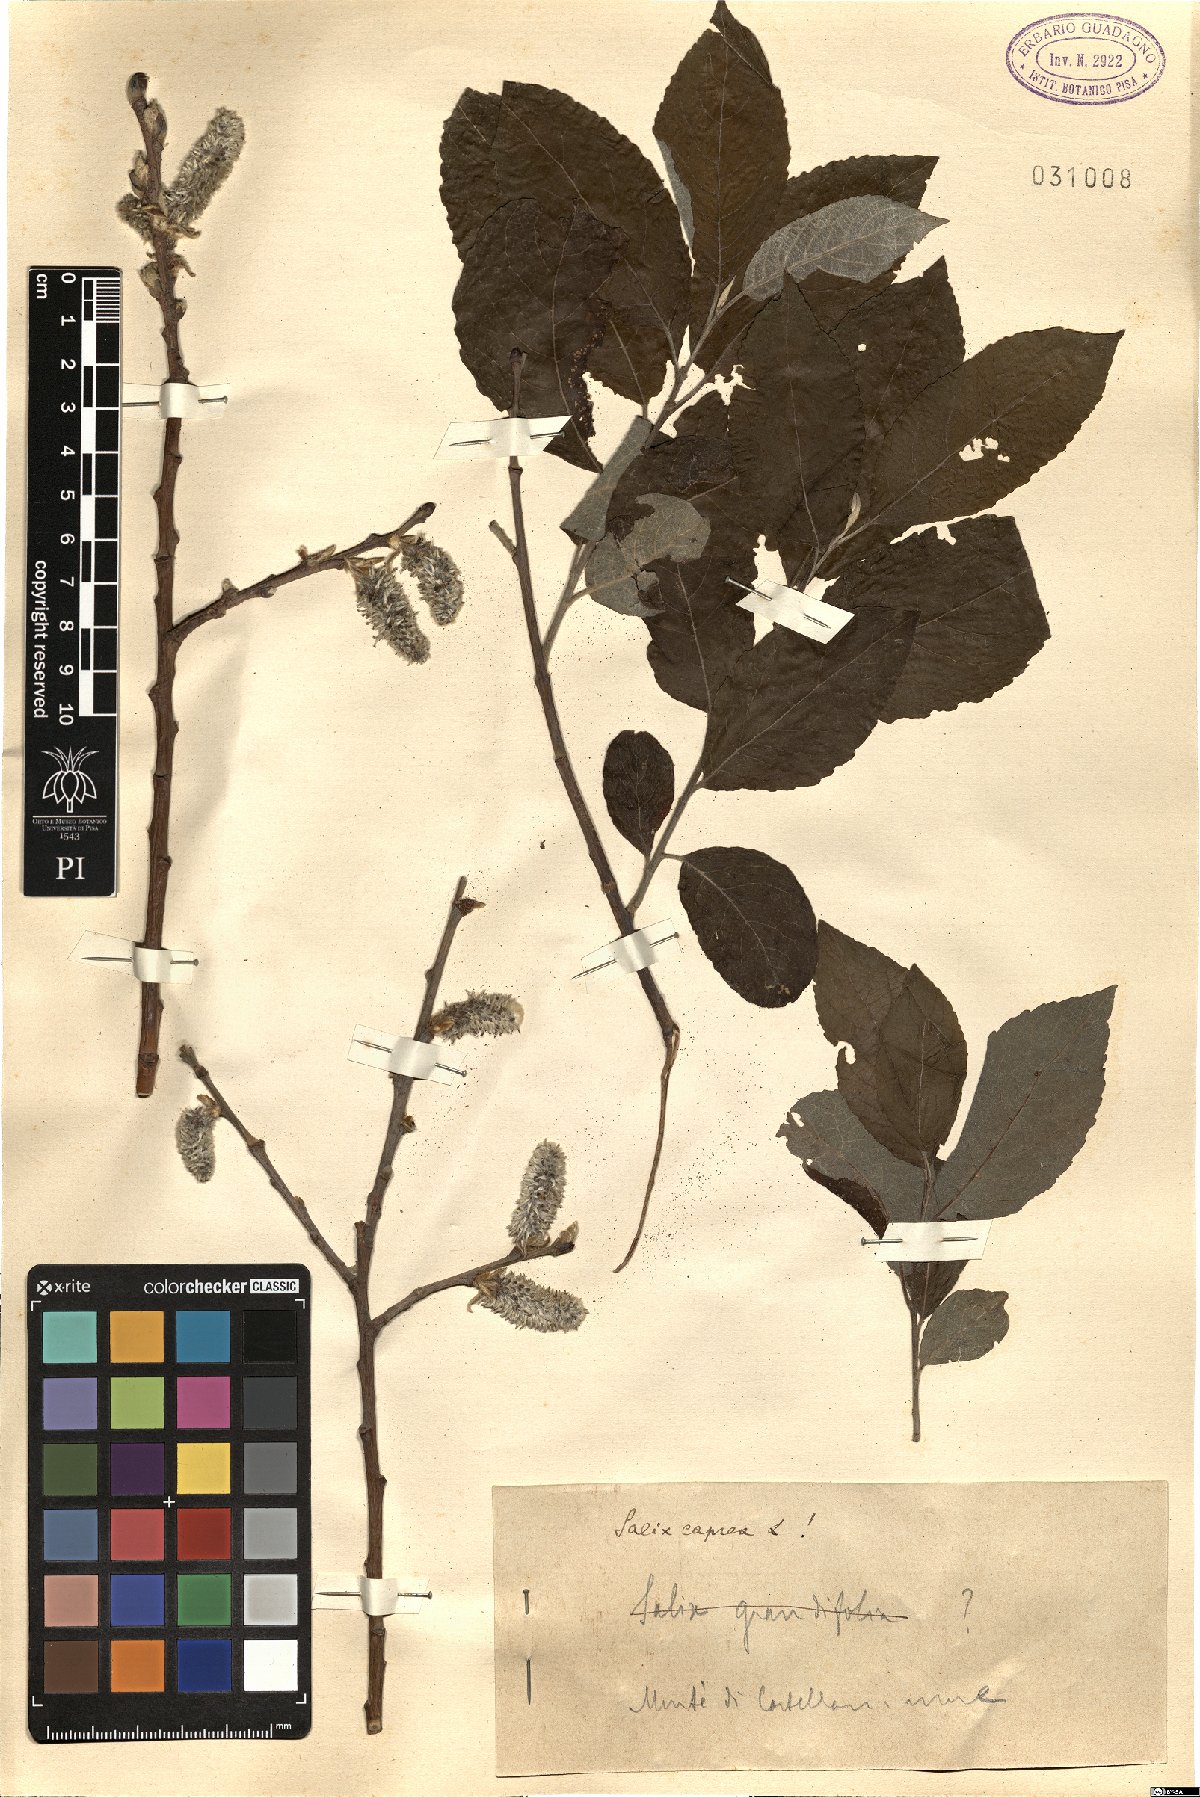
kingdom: Plantae
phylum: Tracheophyta
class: Magnoliopsida
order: Malpighiales
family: Salicaceae
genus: Salix
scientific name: Salix caprea
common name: Goat willow
